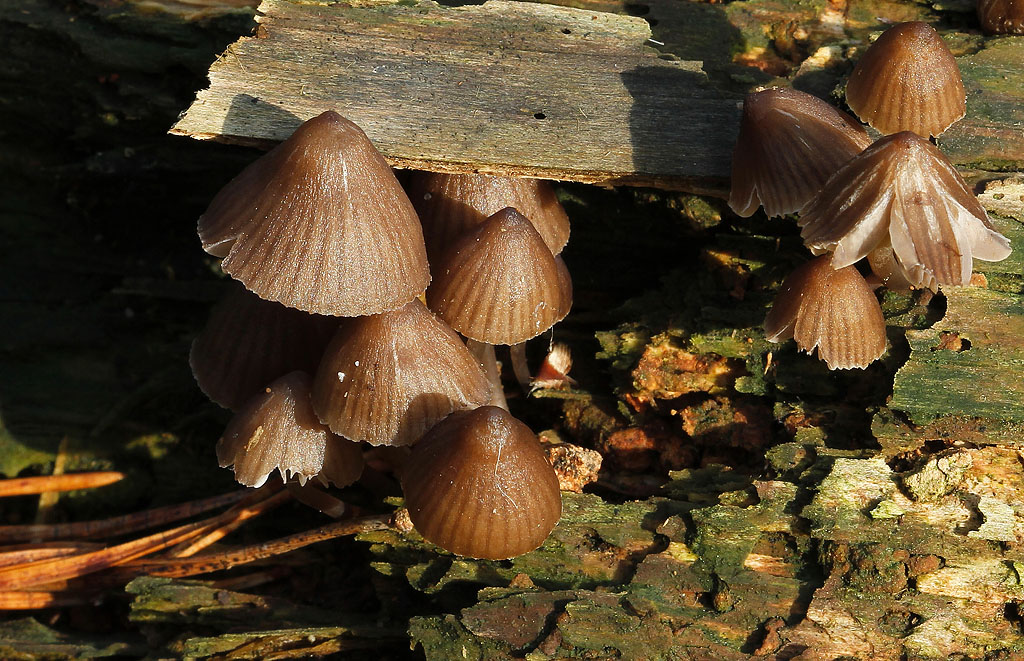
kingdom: Fungi
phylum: Basidiomycota
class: Agaricomycetes
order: Agaricales
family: Mycenaceae
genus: Mycena
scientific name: Mycena stipata
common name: stinkende huesvamp
